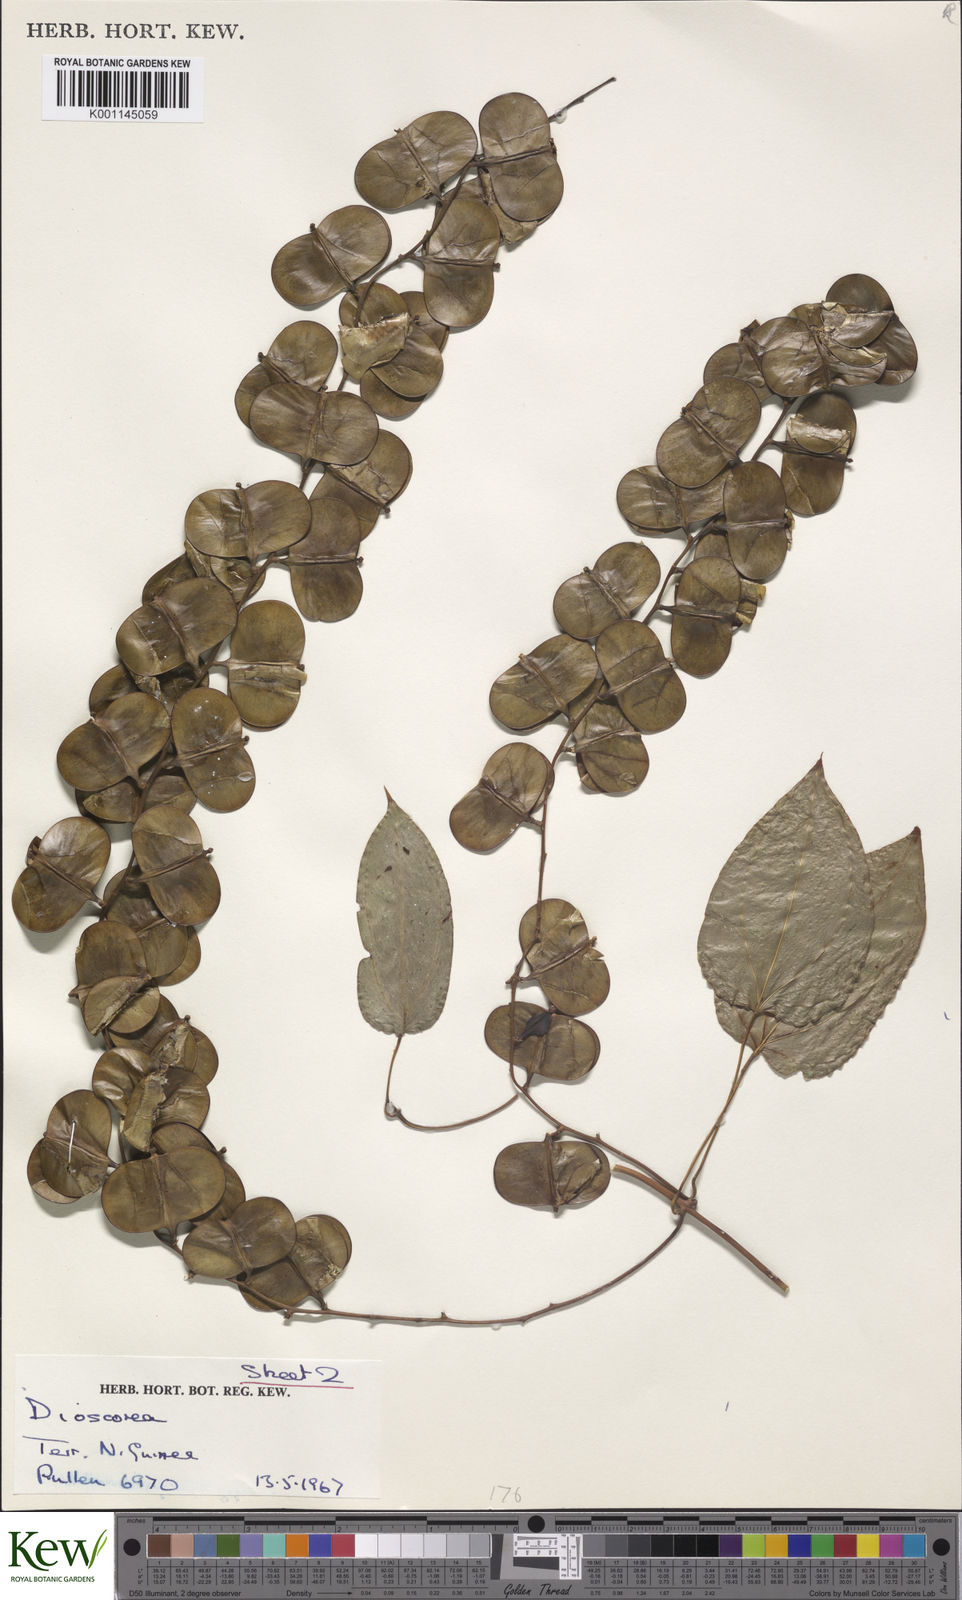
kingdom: Plantae
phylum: Tracheophyta
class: Liliopsida
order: Dioscoreales
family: Dioscoreaceae
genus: Dioscorea
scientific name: Dioscorea
